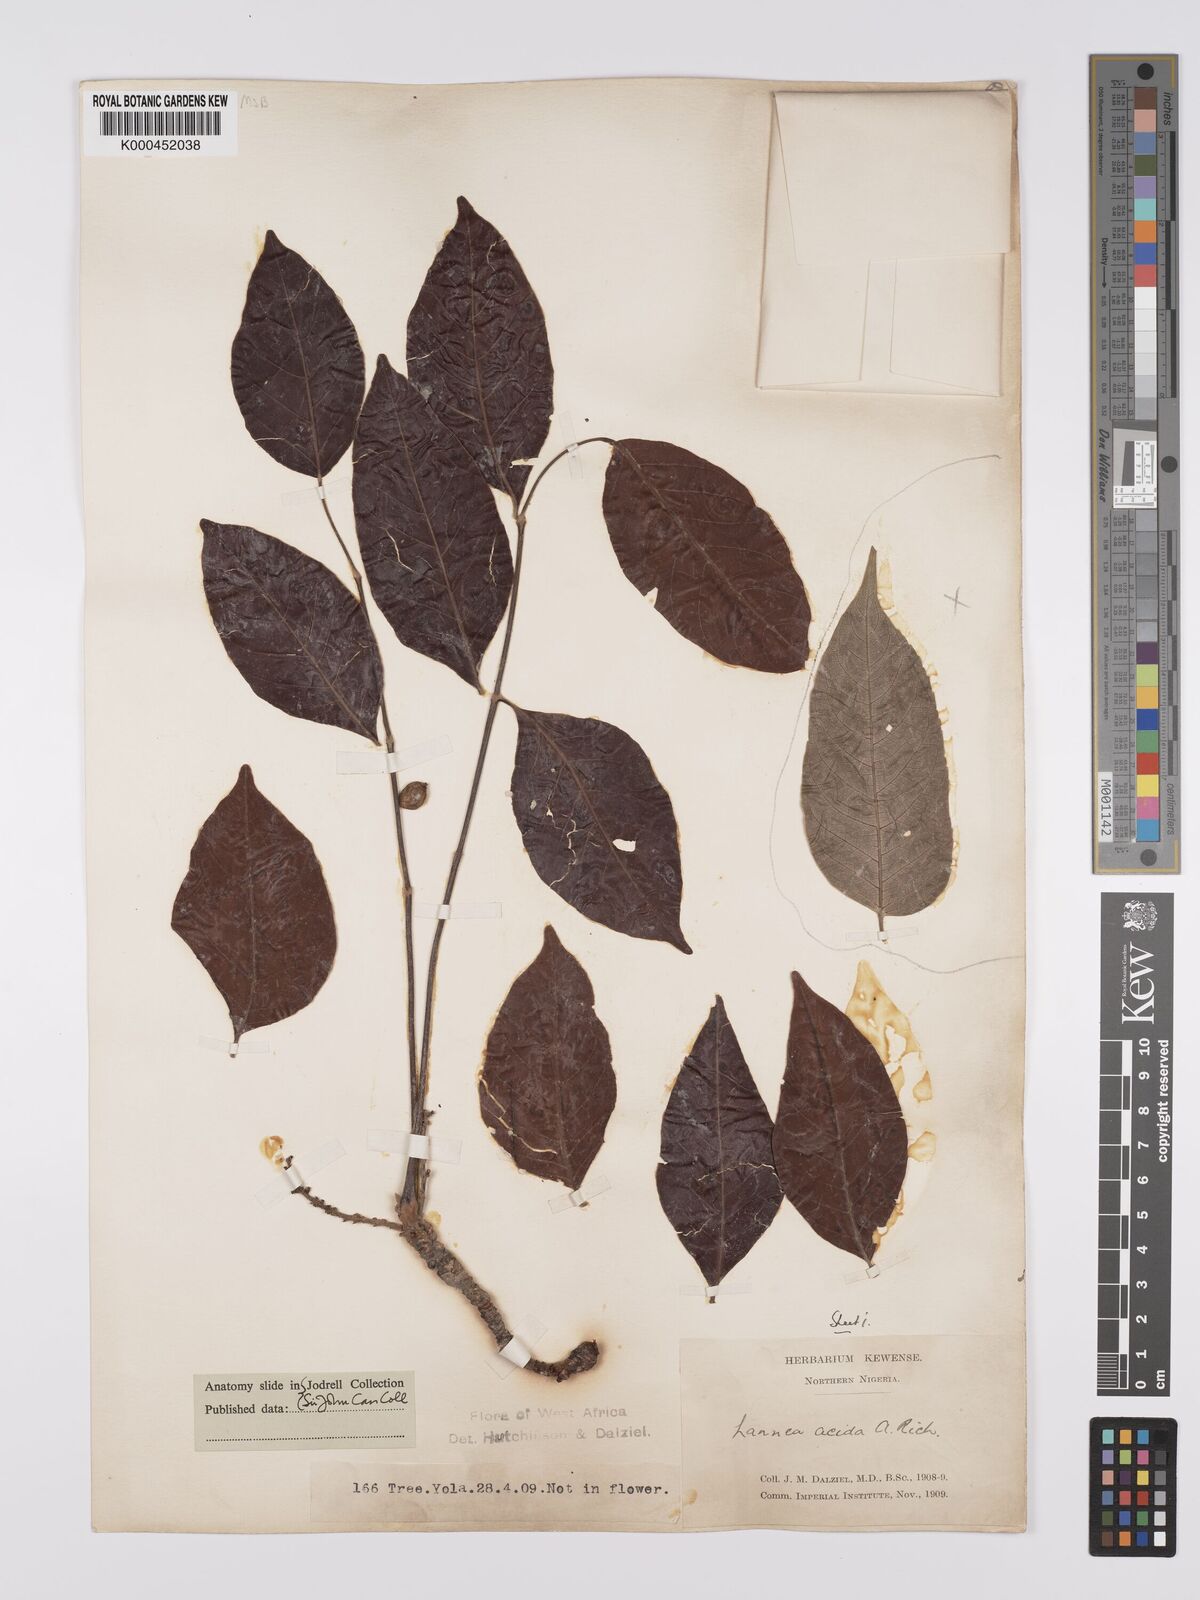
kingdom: Plantae
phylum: Tracheophyta
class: Magnoliopsida
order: Sapindales
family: Anacardiaceae
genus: Lannea
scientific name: Lannea acida
